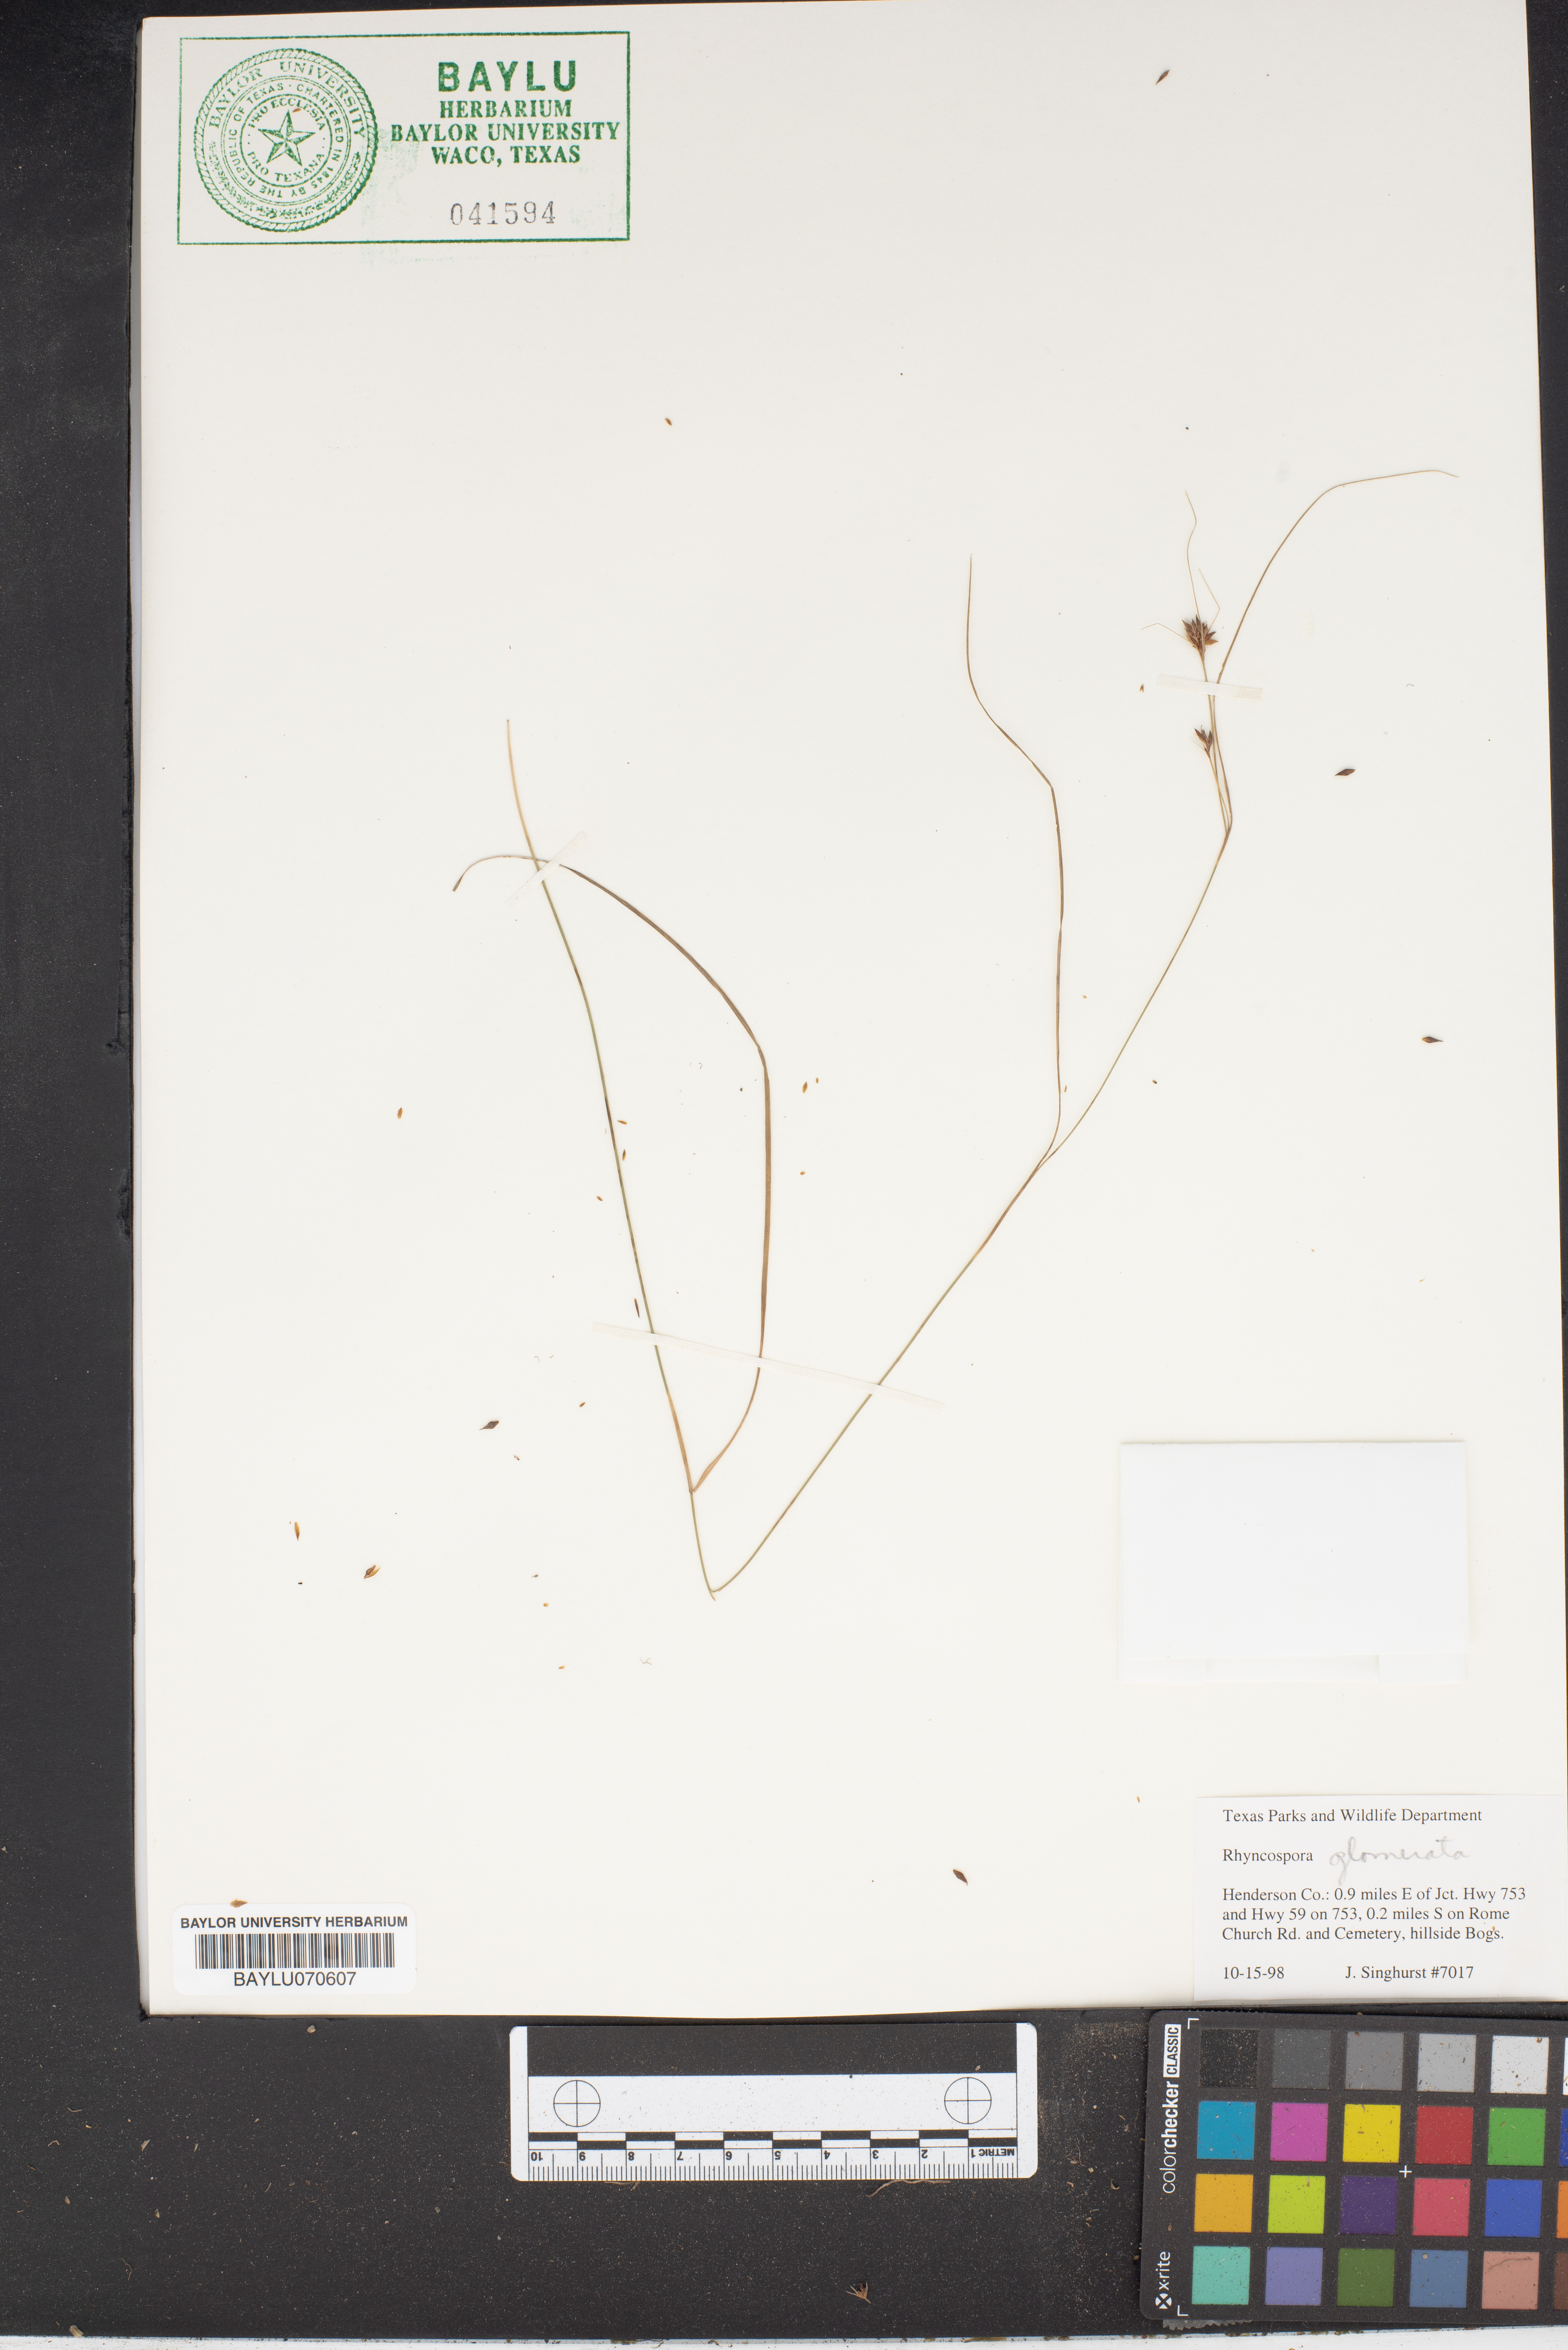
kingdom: Plantae
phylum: Tracheophyta
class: Liliopsida
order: Poales
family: Cyperaceae
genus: Rhynchospora
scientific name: Rhynchospora glomerata
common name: Cluster beak sedge
